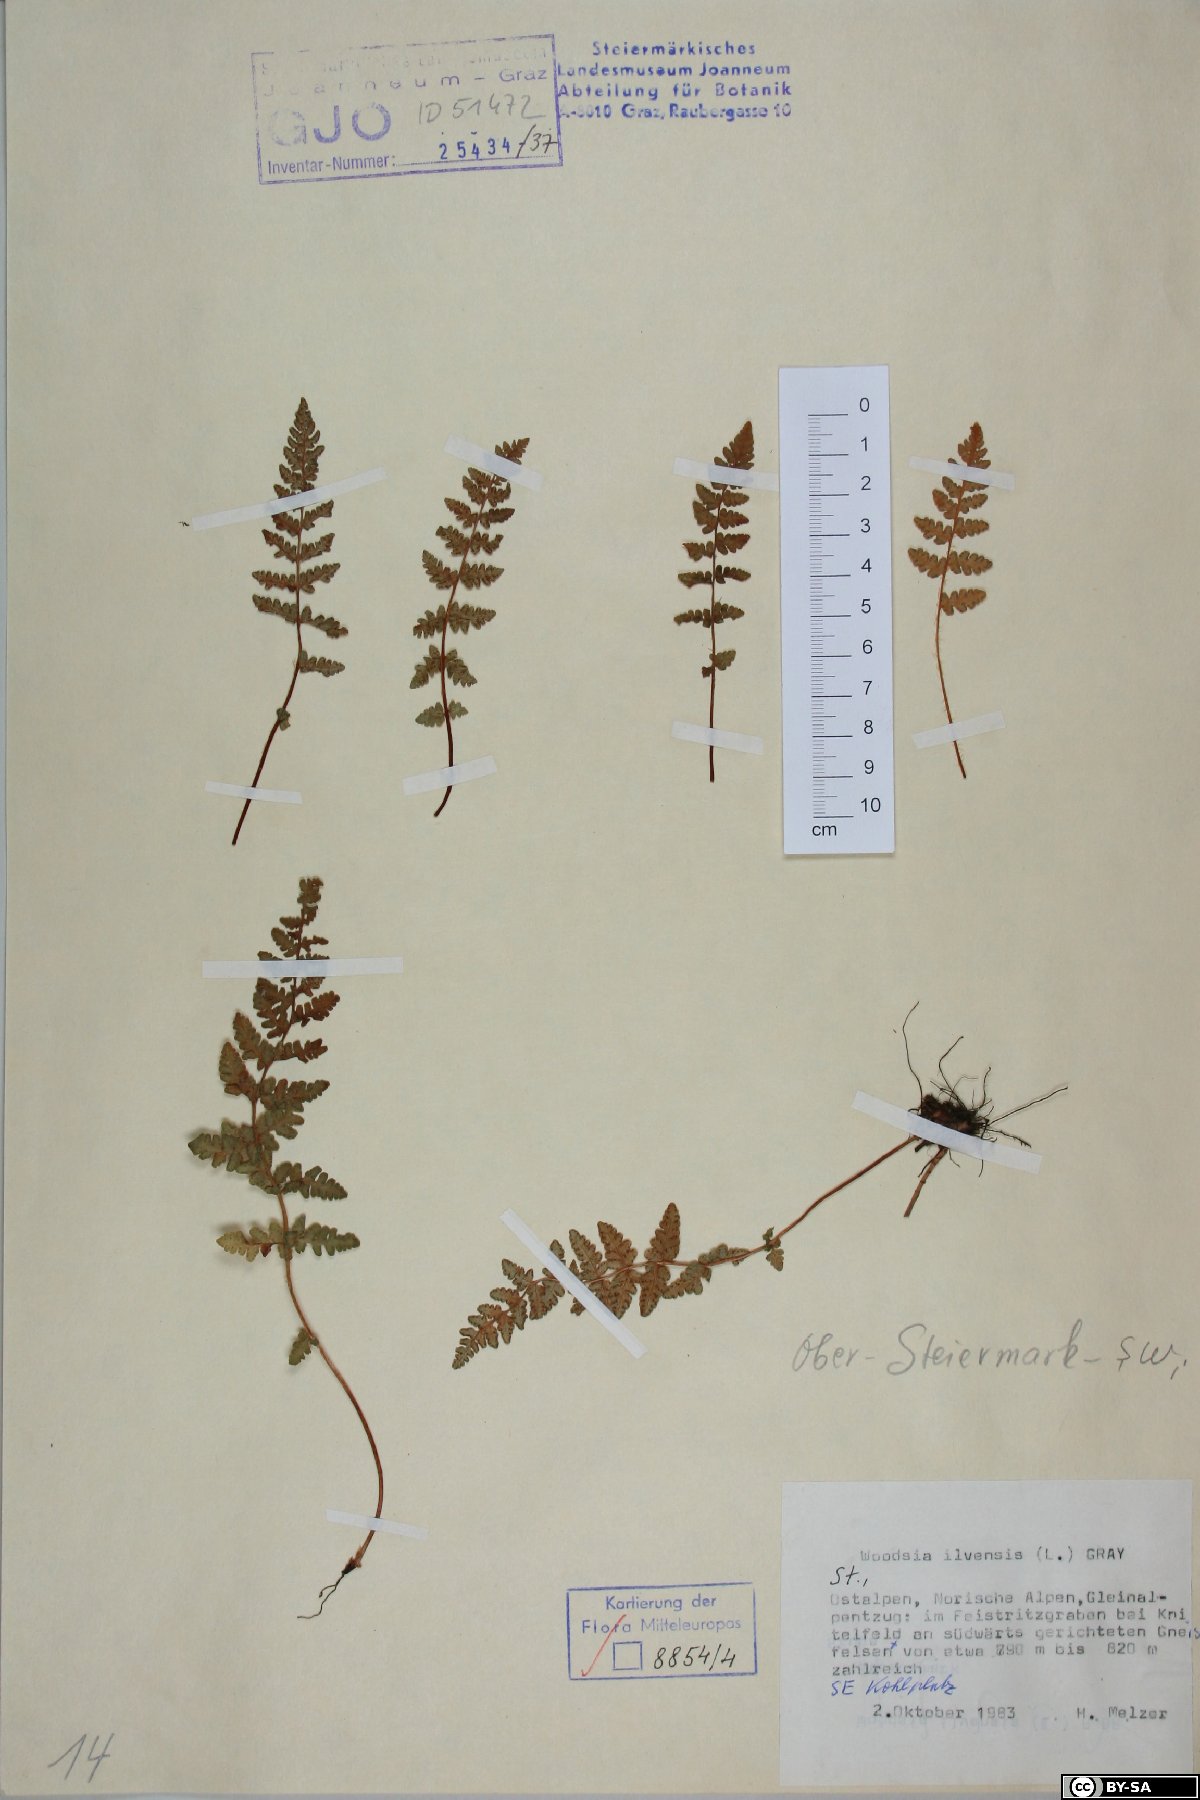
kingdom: Plantae
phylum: Tracheophyta
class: Polypodiopsida
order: Polypodiales
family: Woodsiaceae
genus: Woodsia
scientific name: Woodsia ilvensis
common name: Fragrant woodsia
